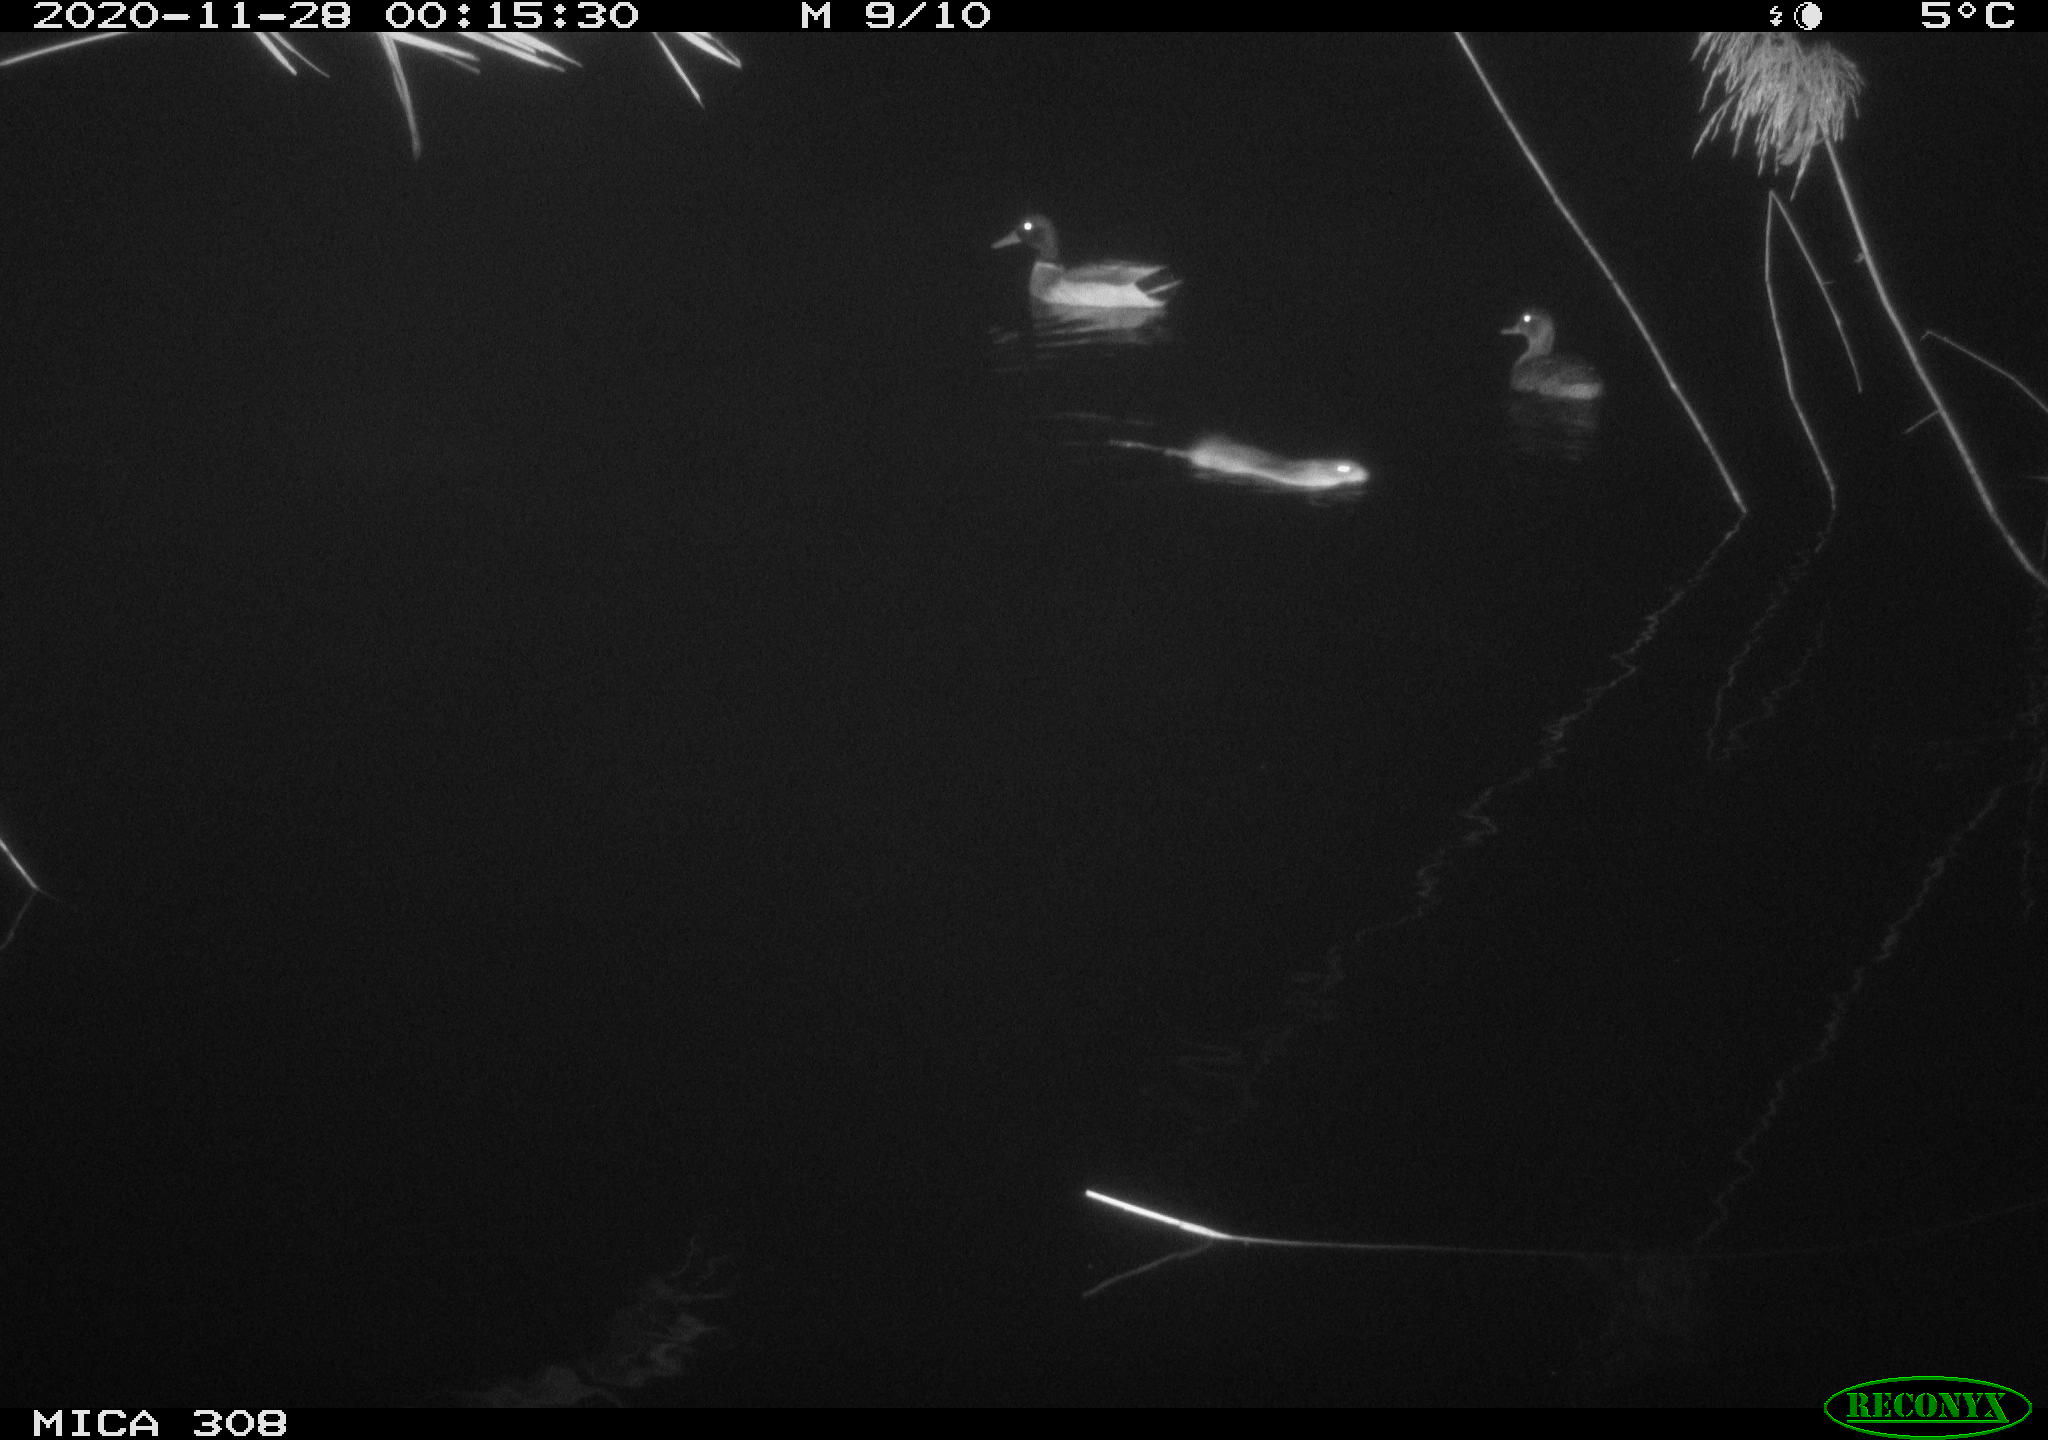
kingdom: Animalia
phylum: Chordata
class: Aves
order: Anseriformes
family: Anatidae
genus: Anas
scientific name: Anas platyrhynchos
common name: Mallard
